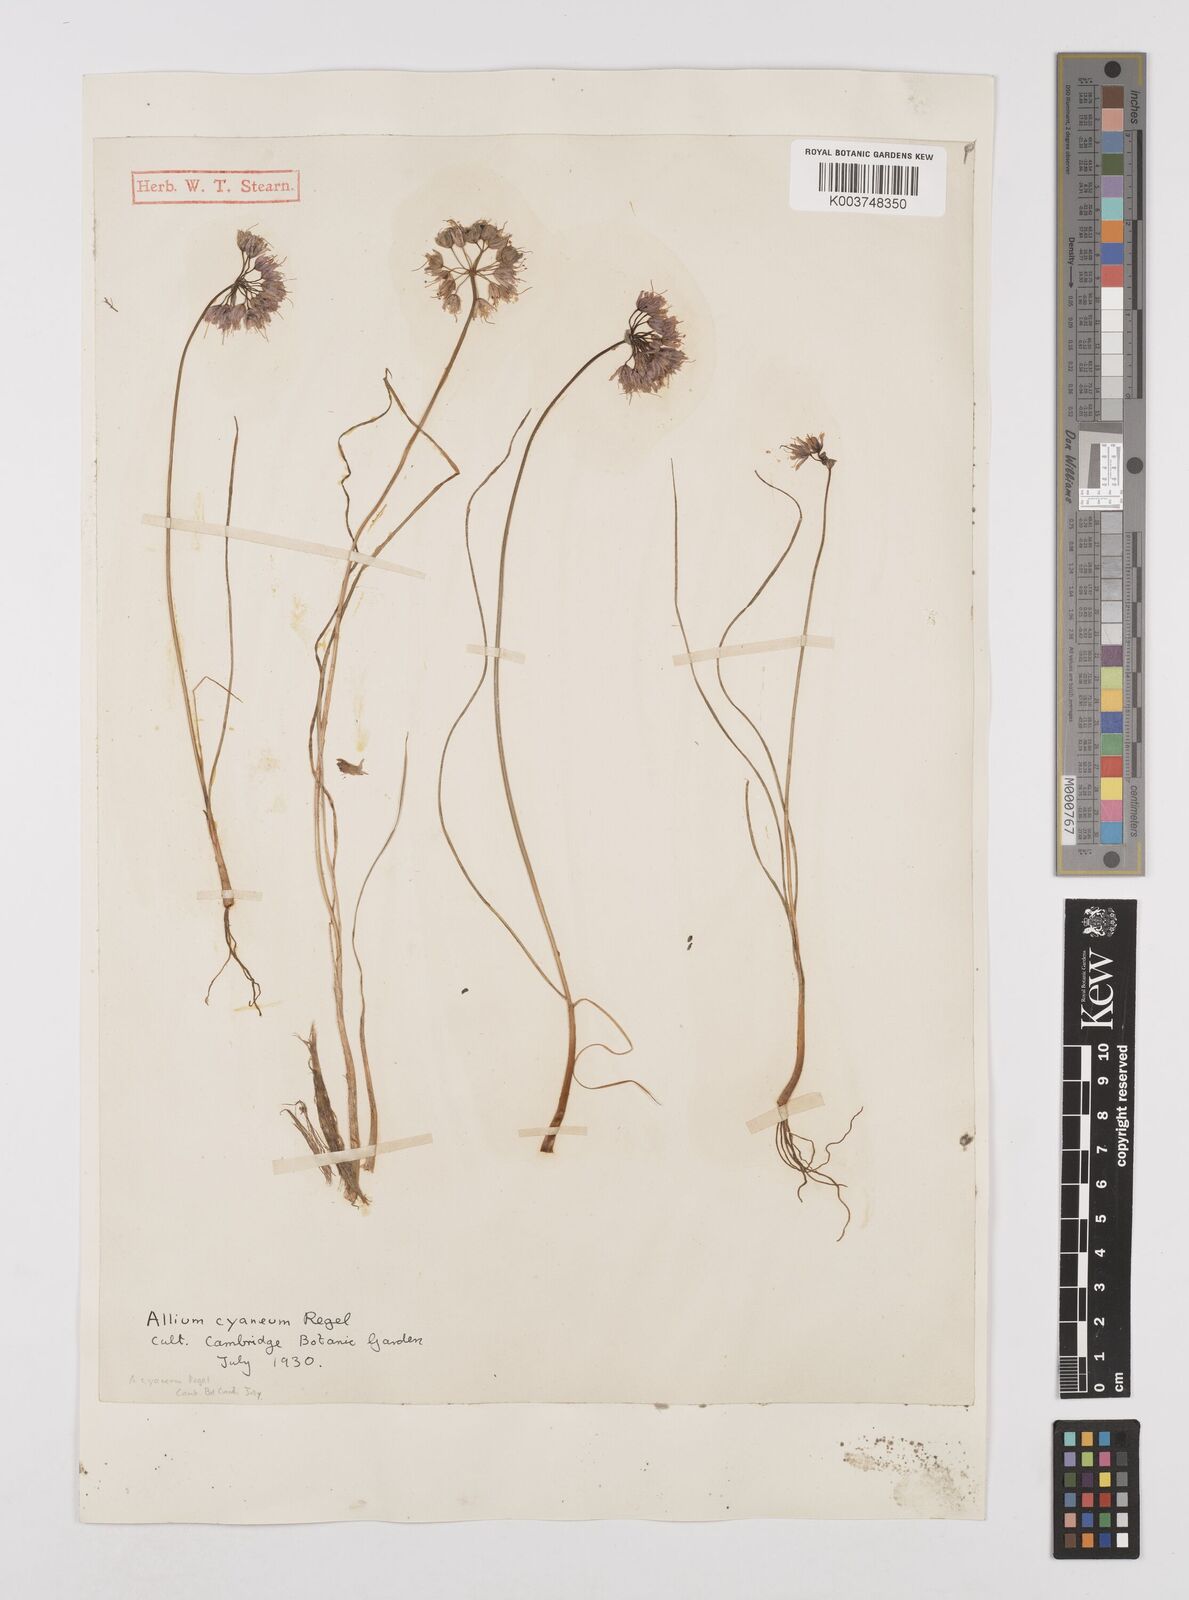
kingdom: Plantae
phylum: Tracheophyta
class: Liliopsida
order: Asparagales
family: Amaryllidaceae
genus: Allium
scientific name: Allium cyaneum
